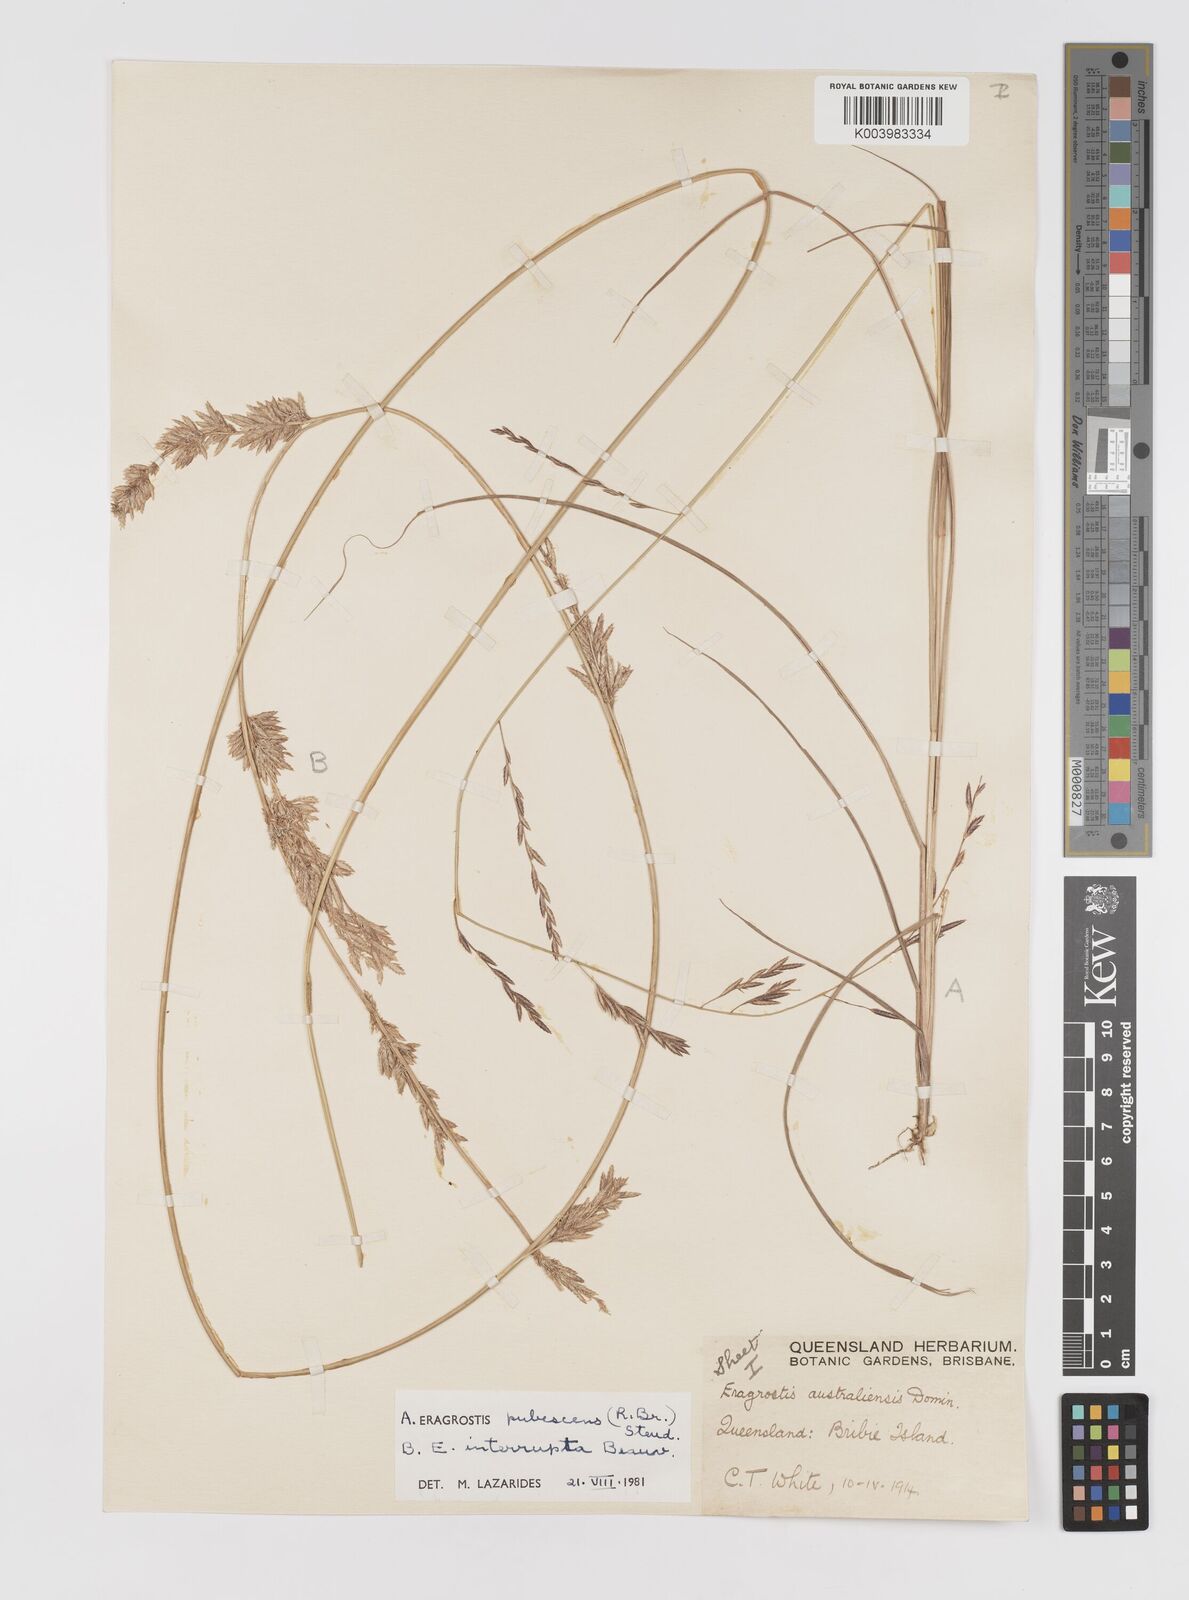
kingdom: Plantae
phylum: Tracheophyta
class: Liliopsida
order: Poales
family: Poaceae
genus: Eragrostis
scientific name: Eragrostis interrupta
